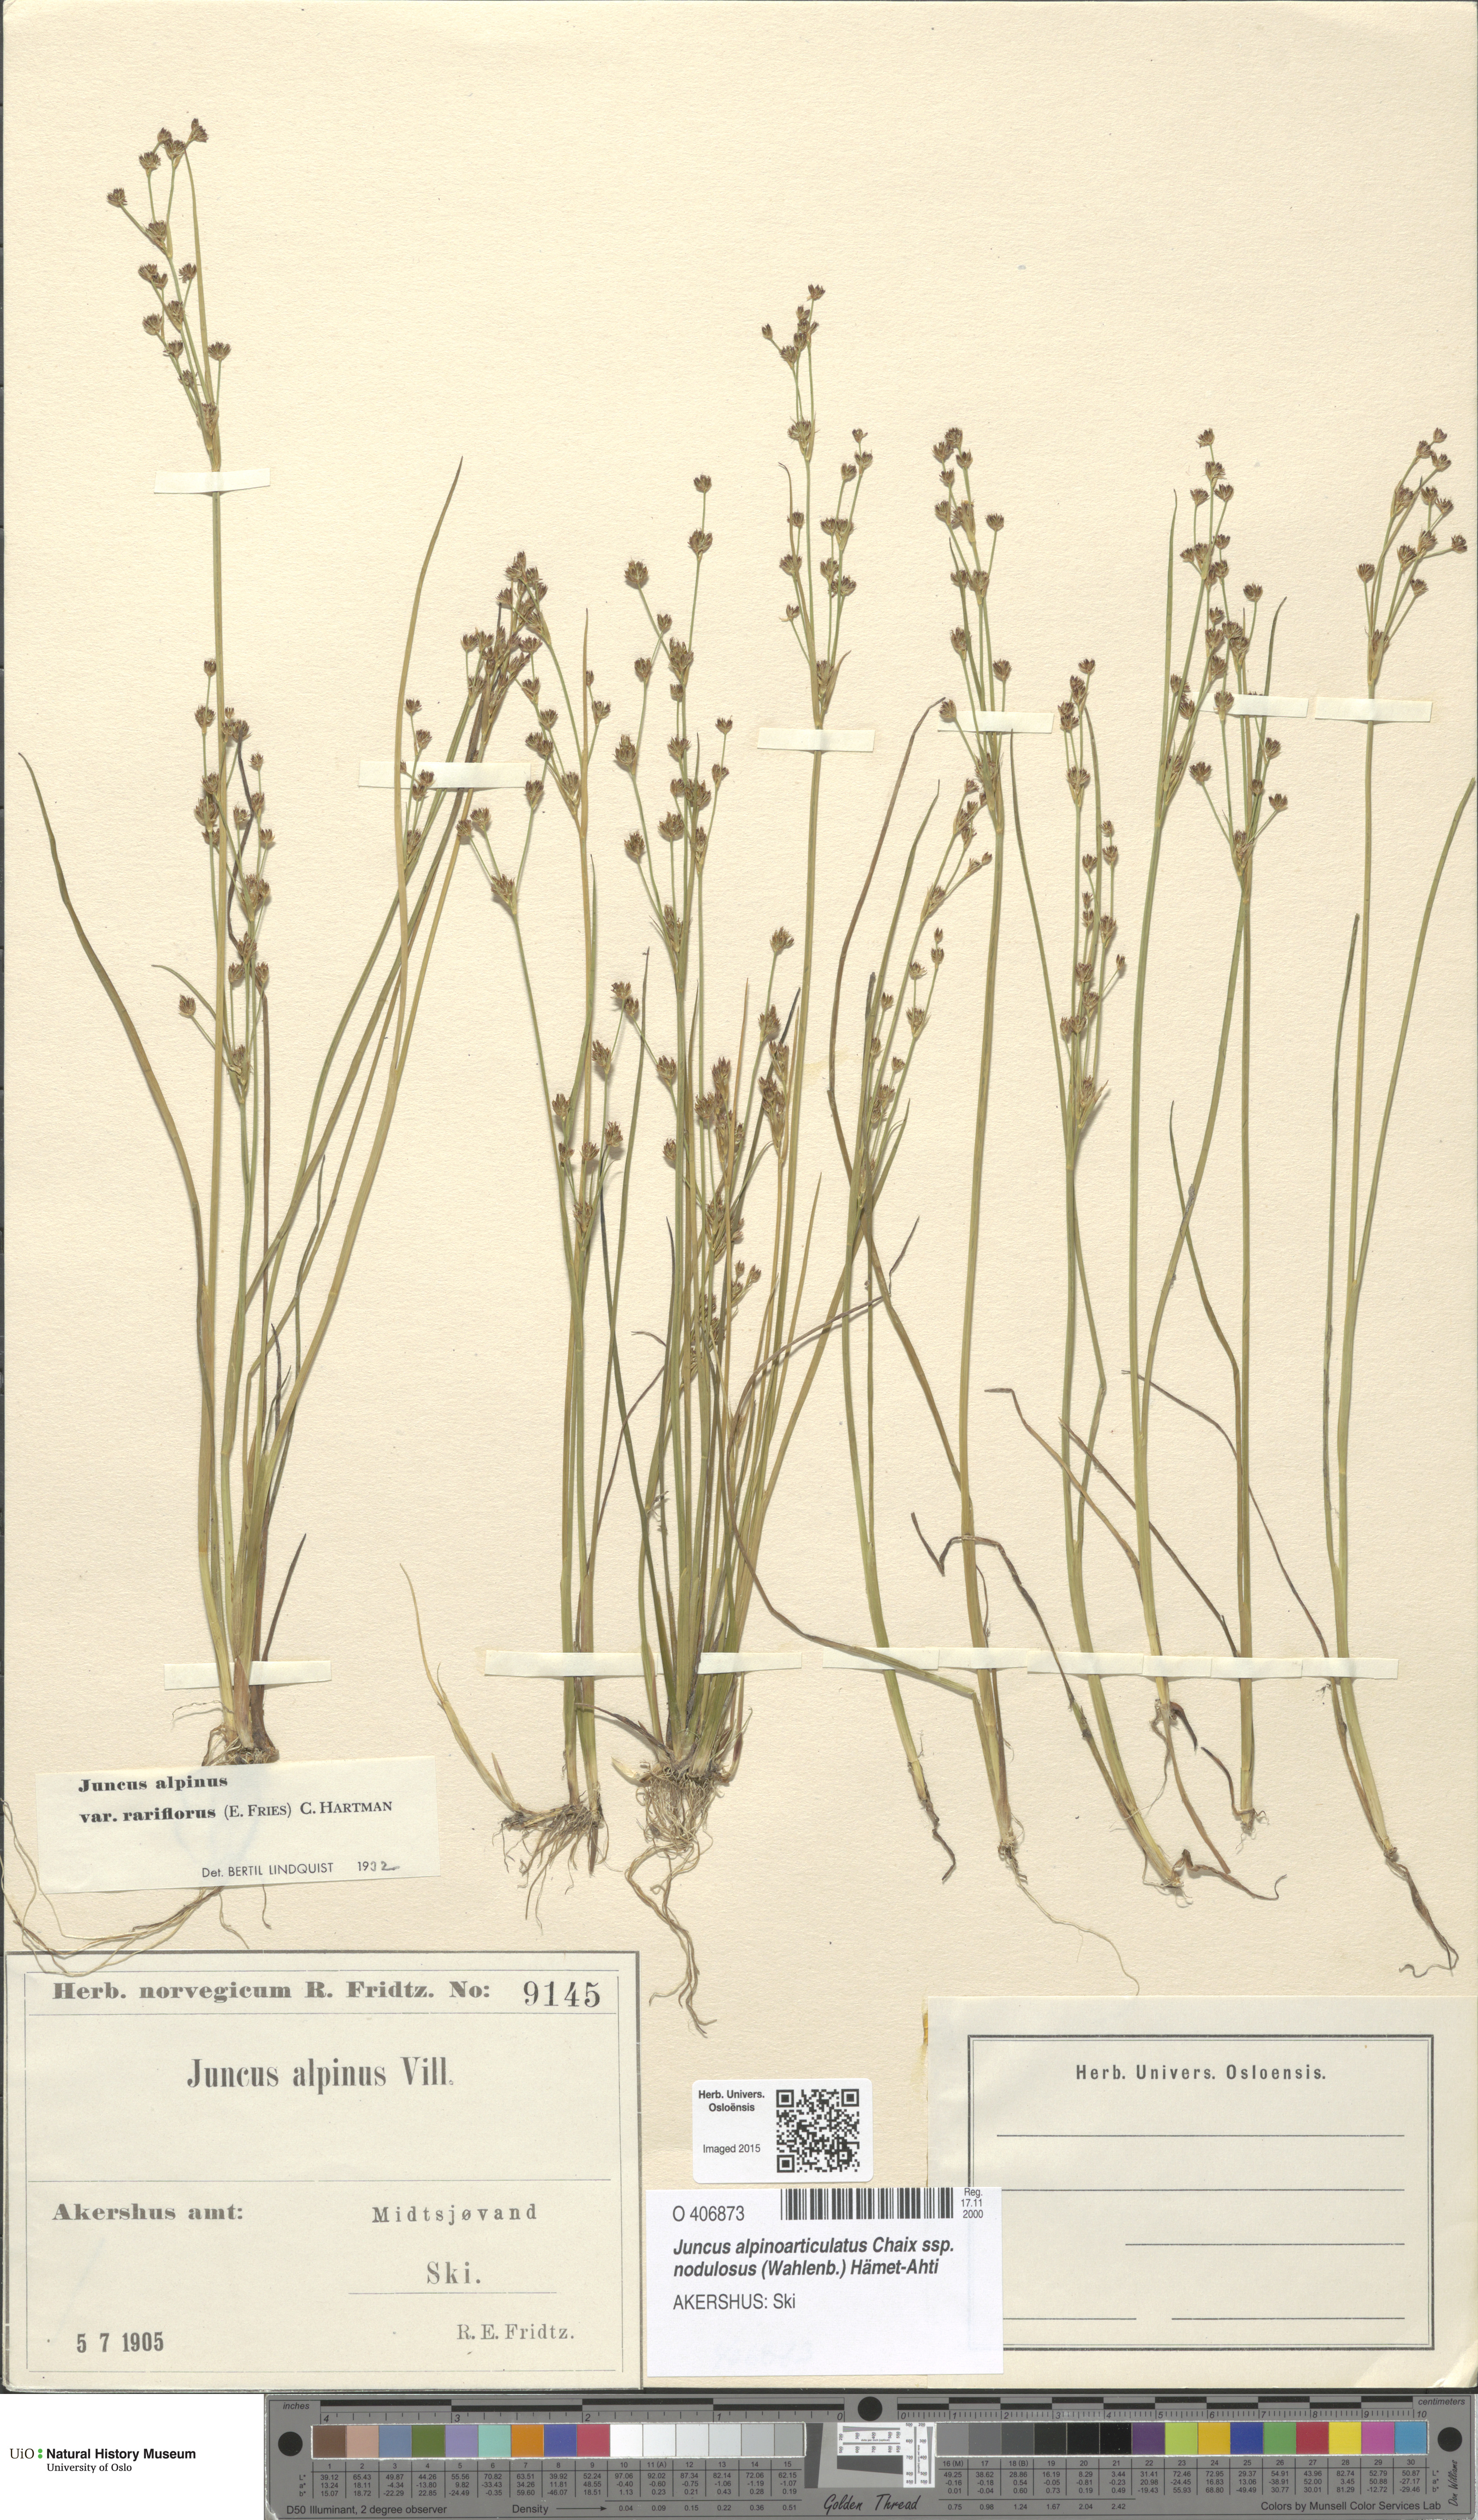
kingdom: Plantae
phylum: Tracheophyta
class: Liliopsida
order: Poales
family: Juncaceae
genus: Juncus
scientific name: Juncus alpinoarticulatus
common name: Alpine rush
